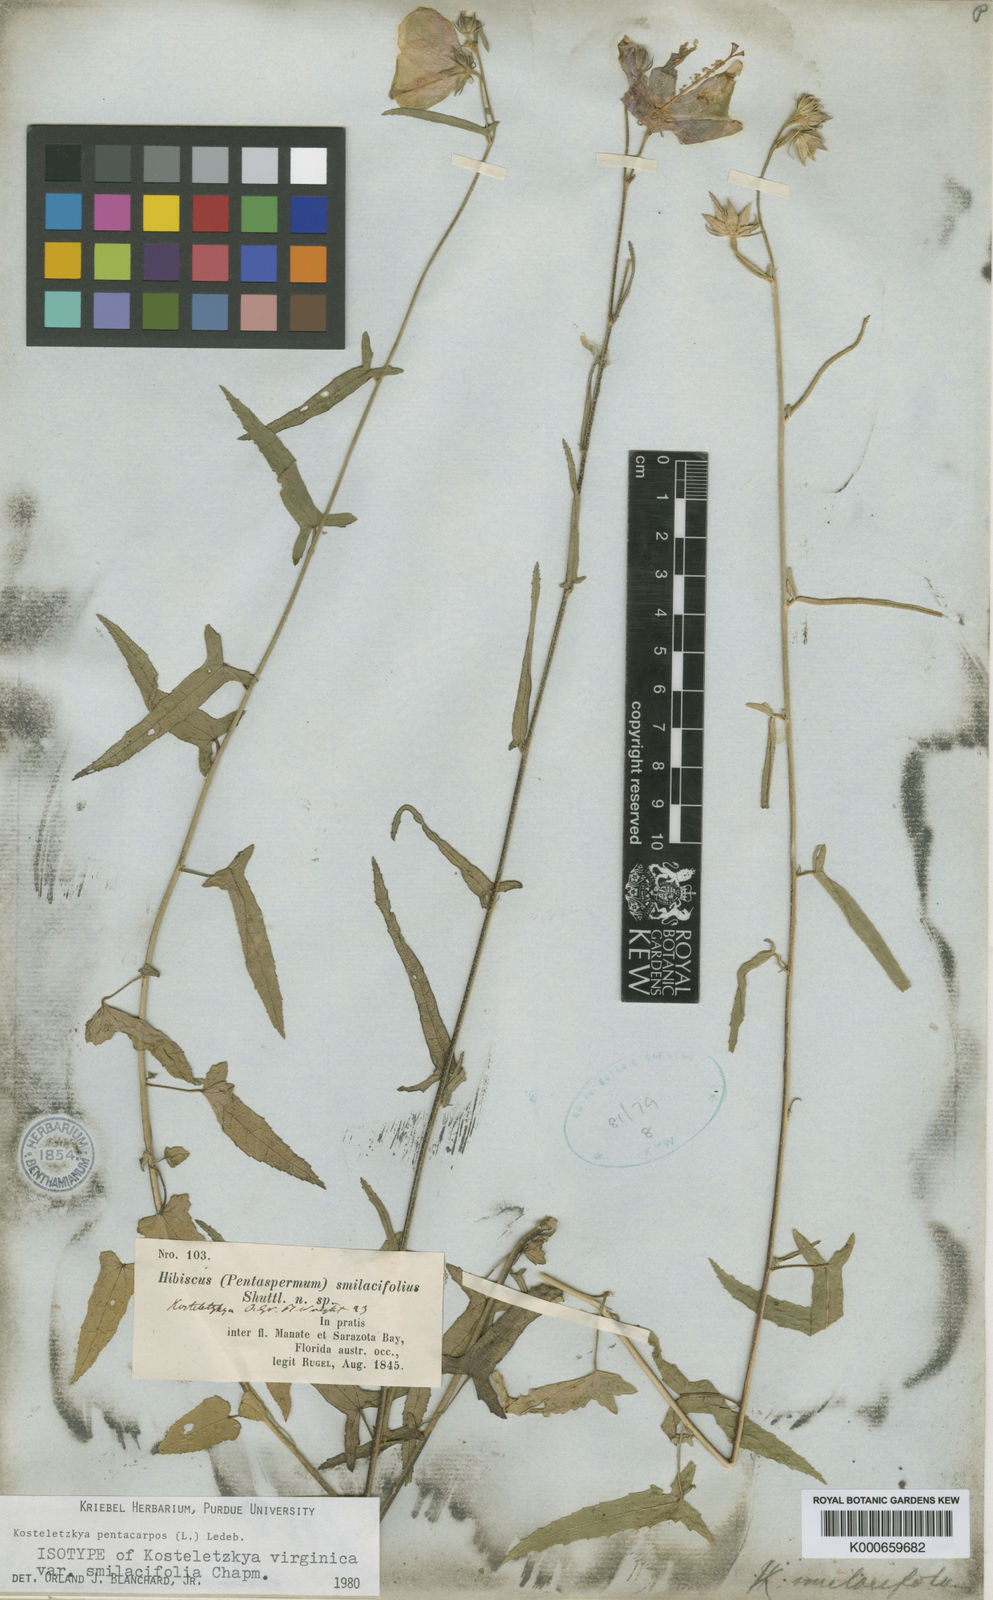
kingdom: Plantae
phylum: Tracheophyta
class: Magnoliopsida
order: Malvales
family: Malvaceae
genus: Kosteletzkya
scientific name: Kosteletzkya
